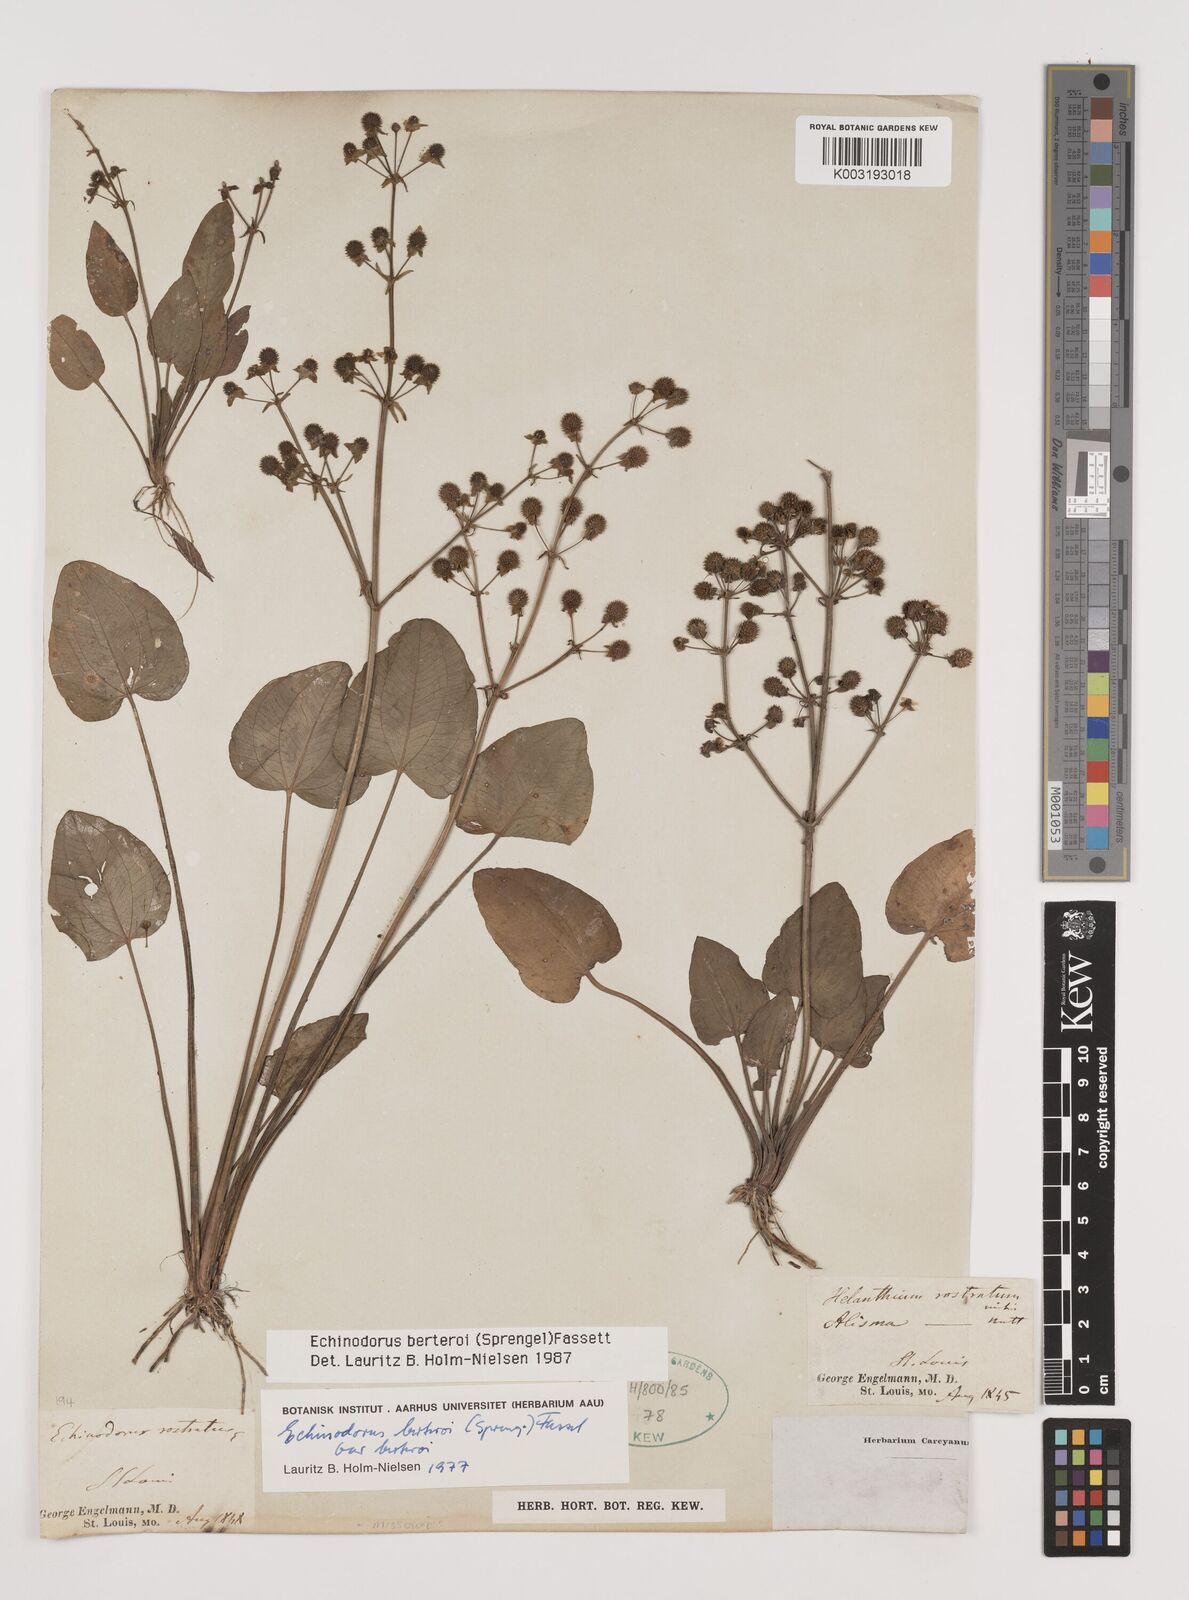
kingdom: Plantae
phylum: Tracheophyta
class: Liliopsida
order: Alismatales
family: Alismataceae
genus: Echinodorus
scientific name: Echinodorus berteroi
